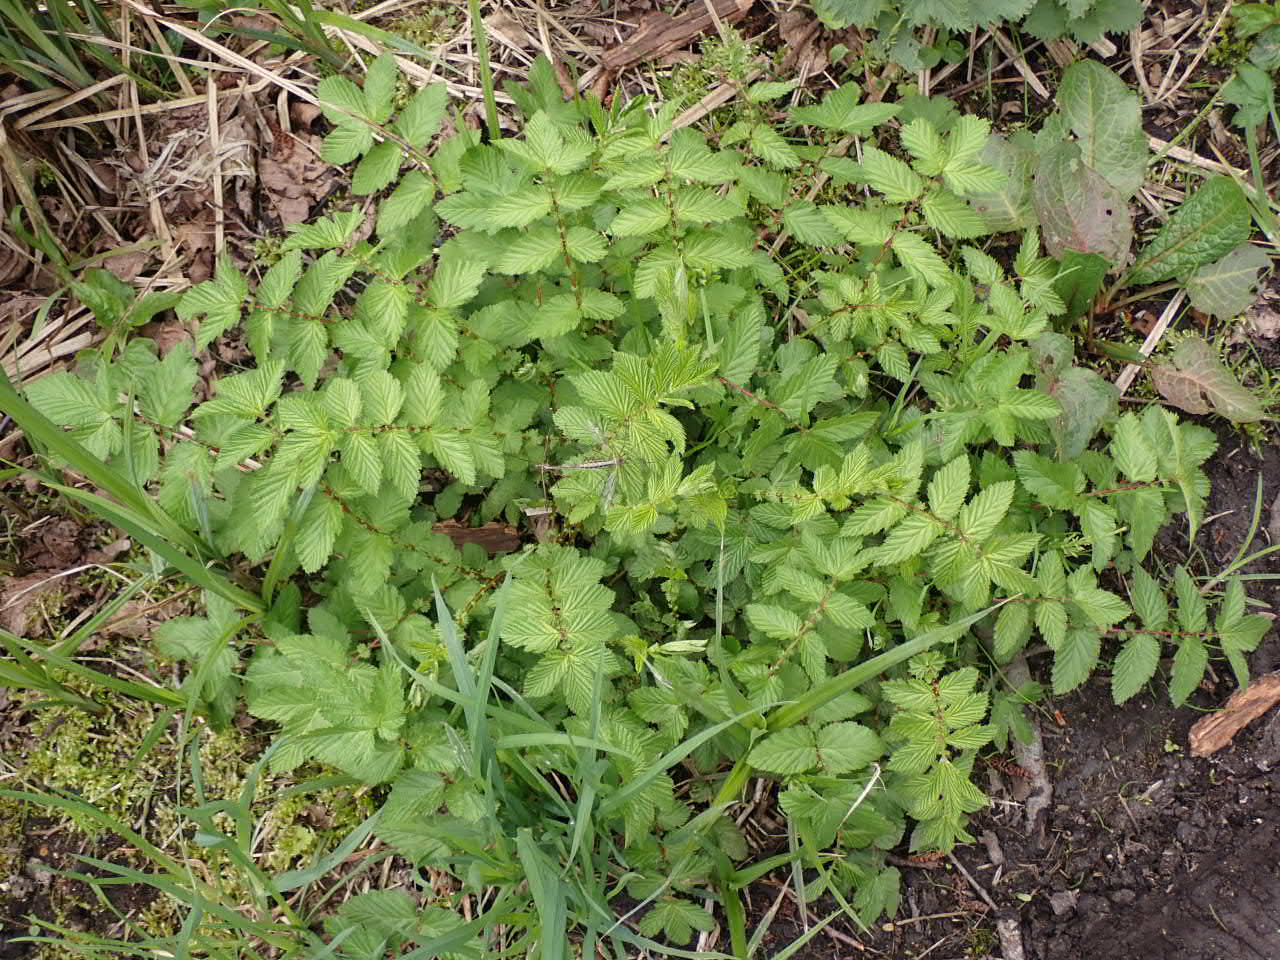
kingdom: Plantae
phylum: Tracheophyta
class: Magnoliopsida
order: Rosales
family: Rosaceae
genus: Filipendula
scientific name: Filipendula ulmaria
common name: Almindelig mjødurt
